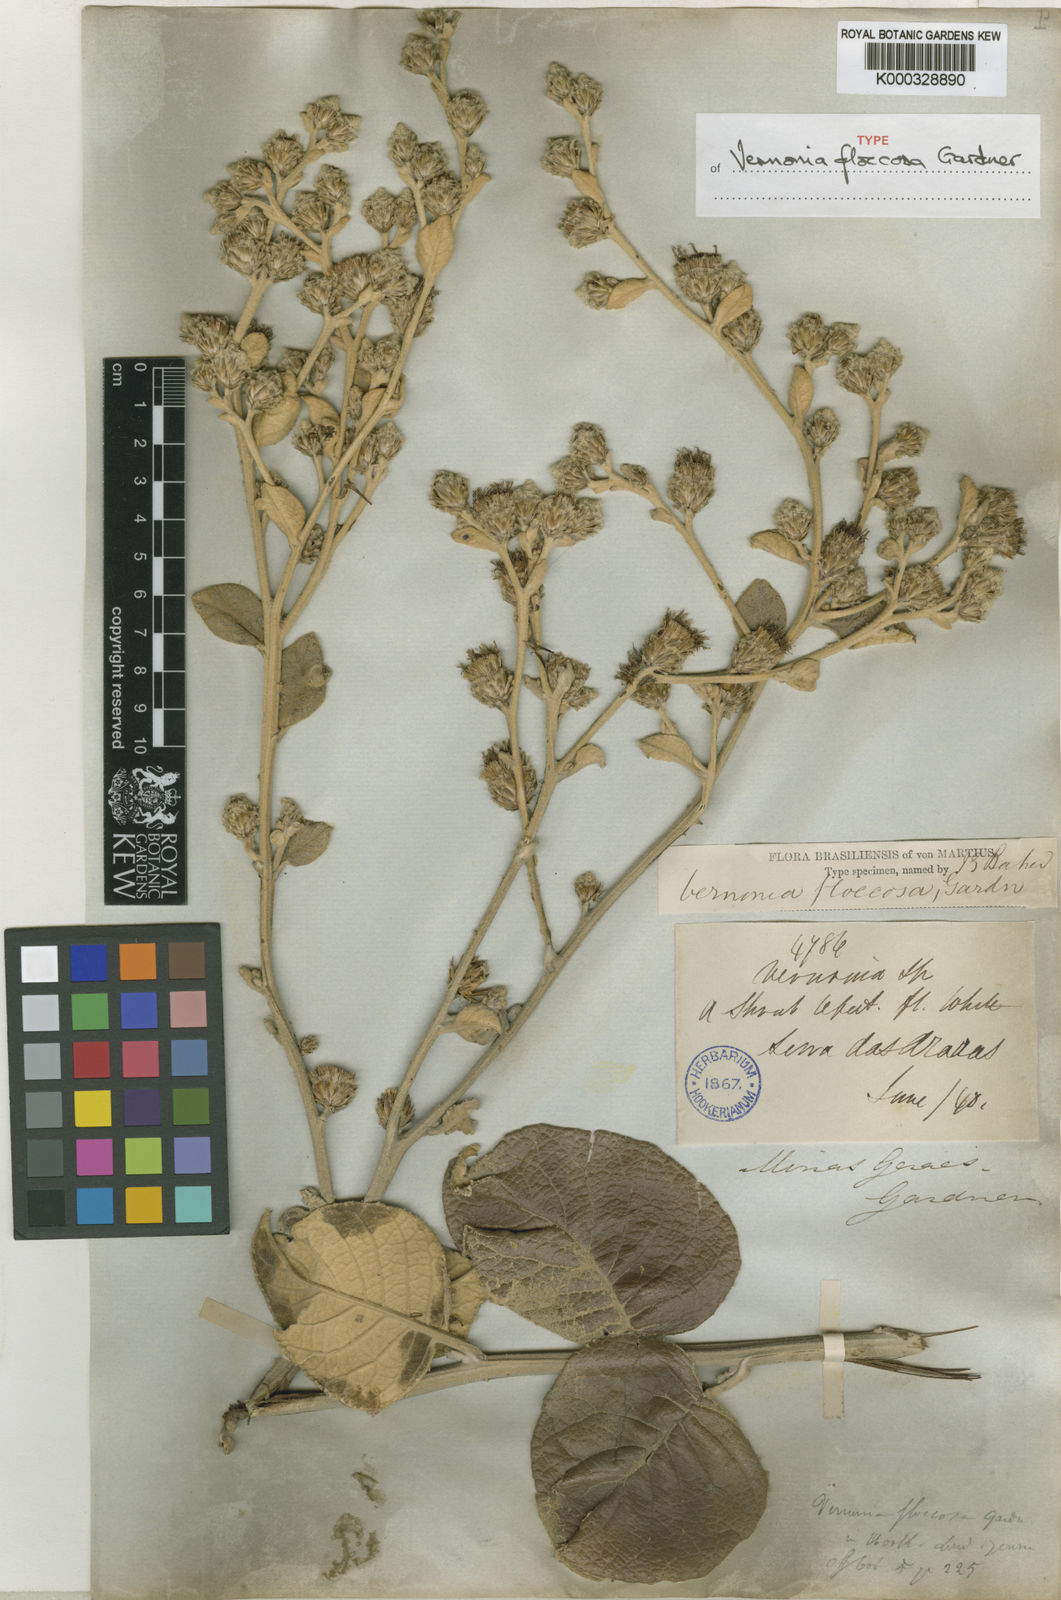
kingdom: Plantae
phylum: Tracheophyta
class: Magnoliopsida
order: Asterales
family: Asteraceae
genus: Lessingianthus
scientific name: Lessingianthus floccosus
